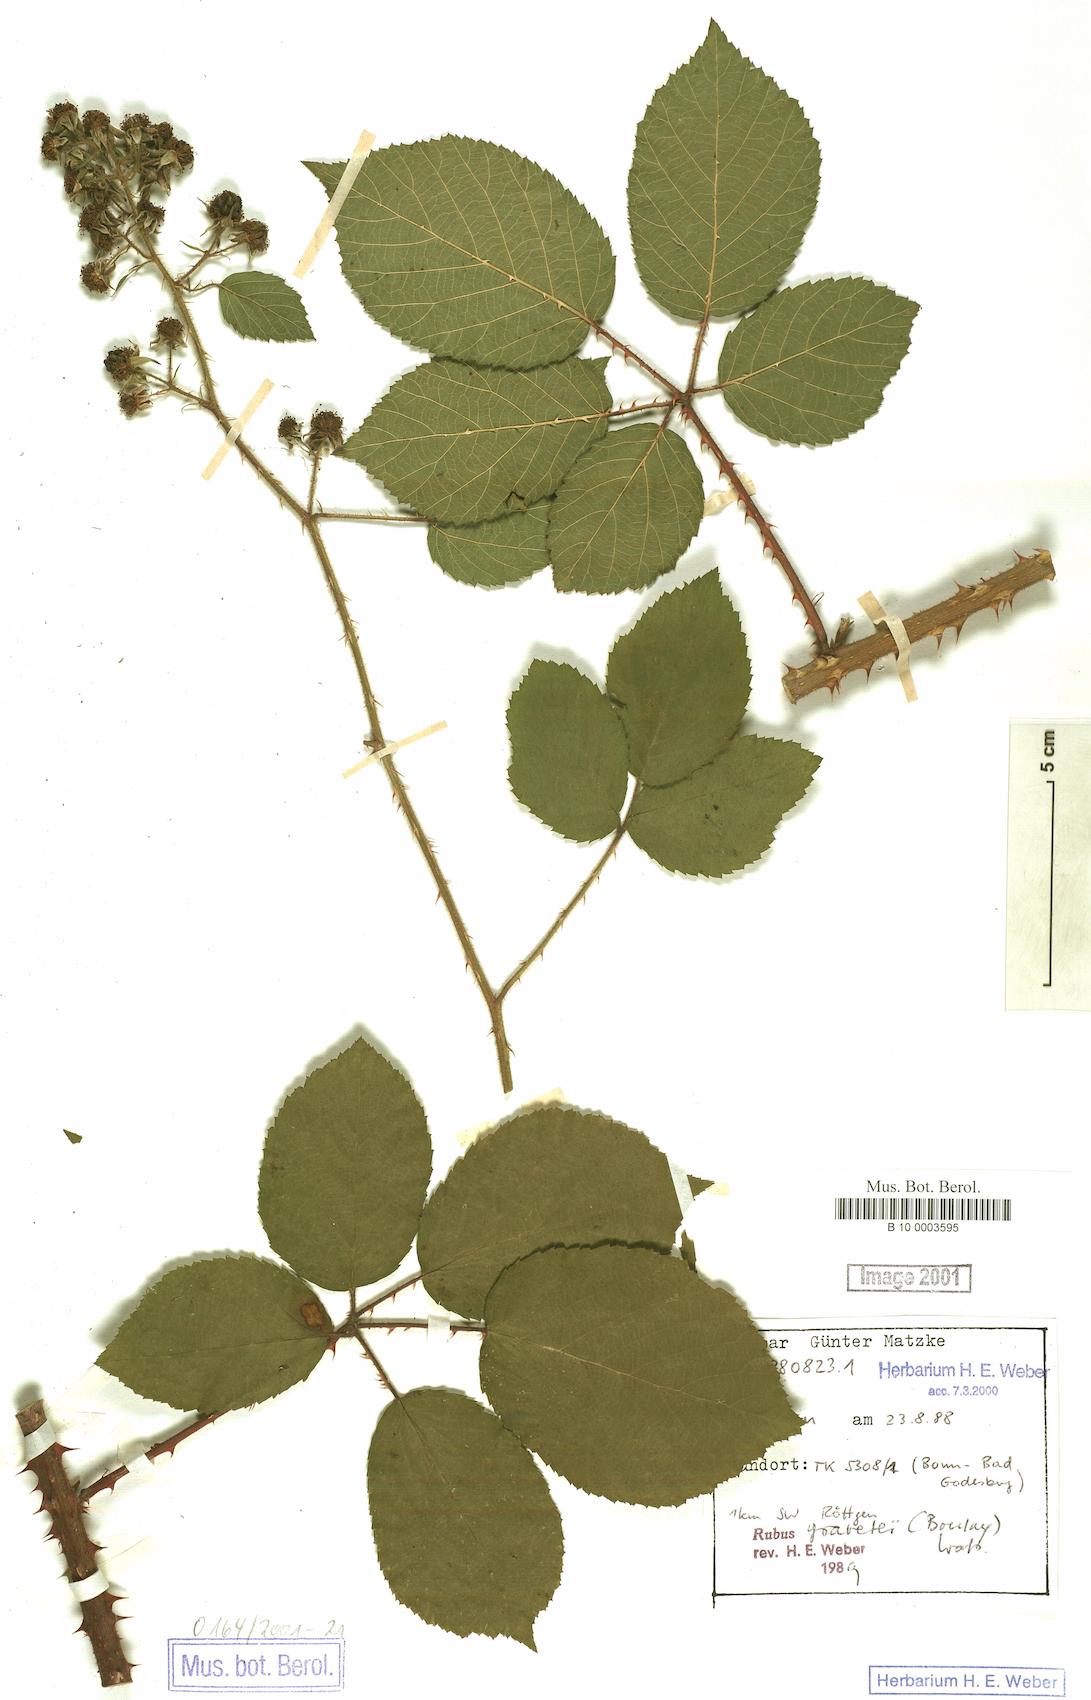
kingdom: Plantae
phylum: Tracheophyta
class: Magnoliopsida
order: Rosales
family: Rosaceae
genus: Rubus
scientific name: Rubus gravetii
